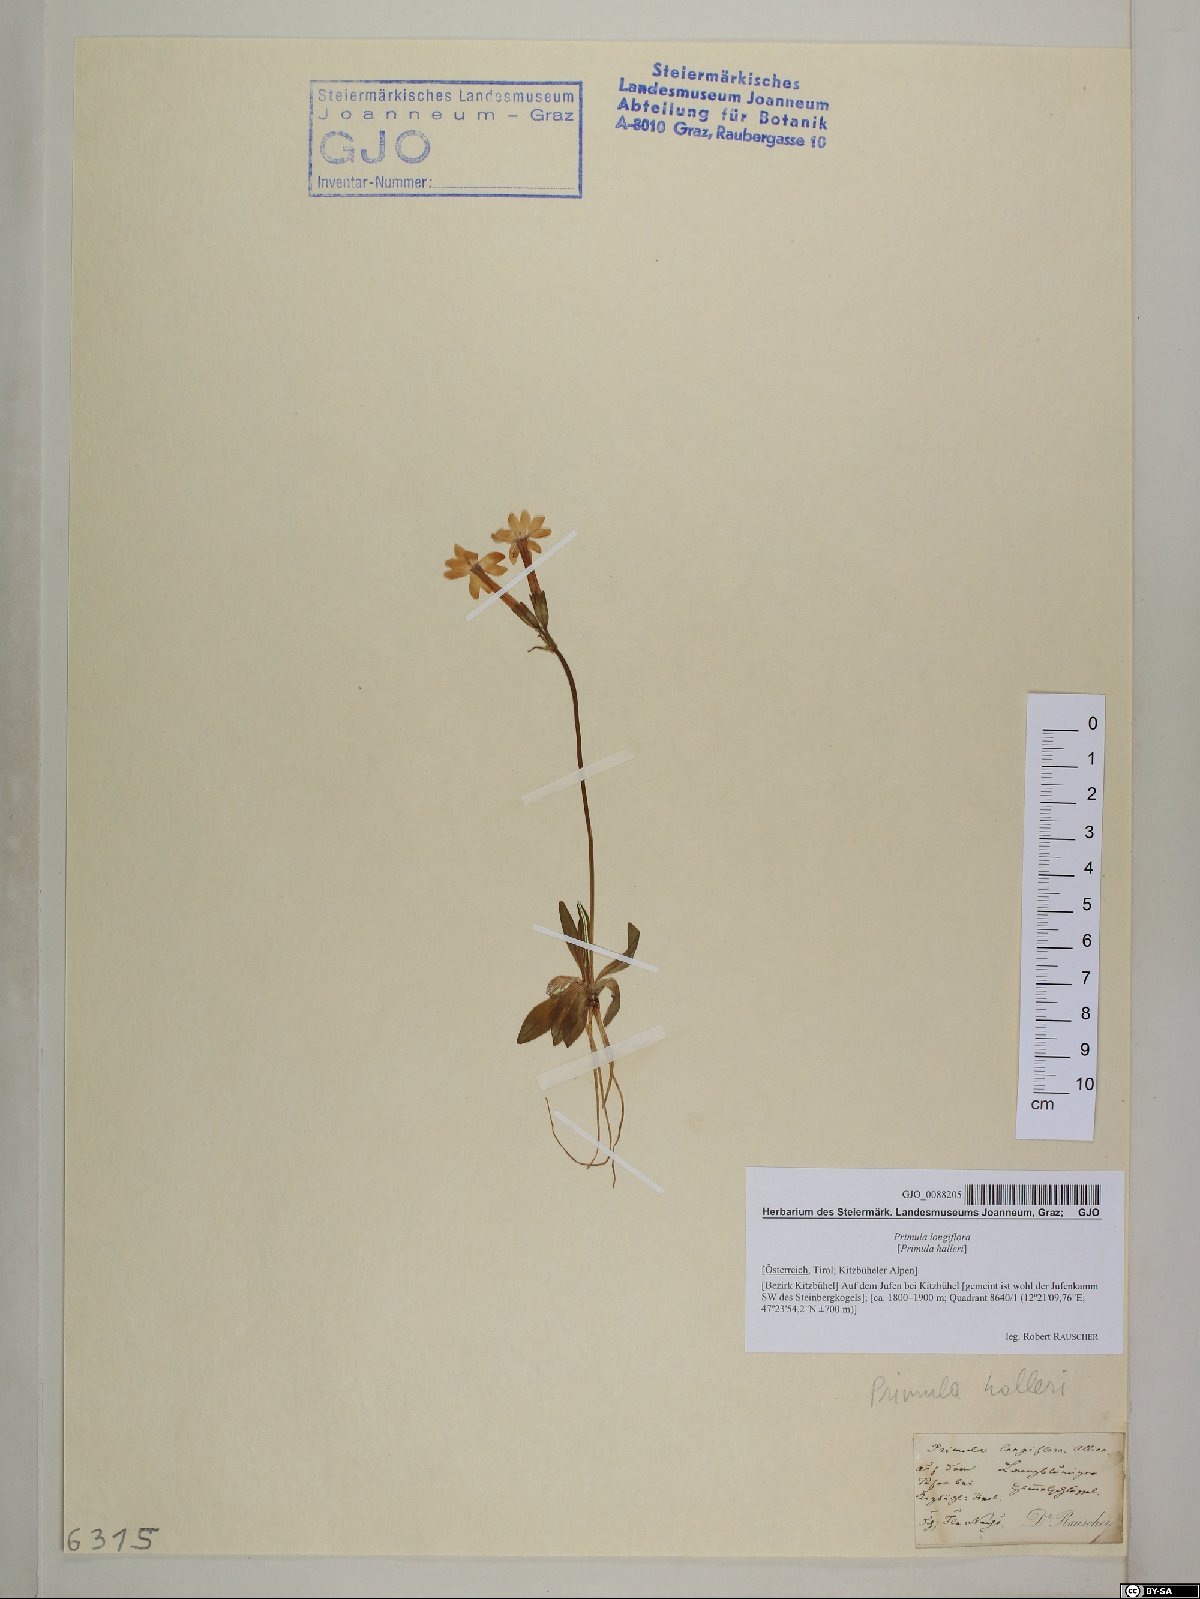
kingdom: Plantae
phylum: Tracheophyta
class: Magnoliopsida
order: Ericales
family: Primulaceae
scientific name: Primulaceae
